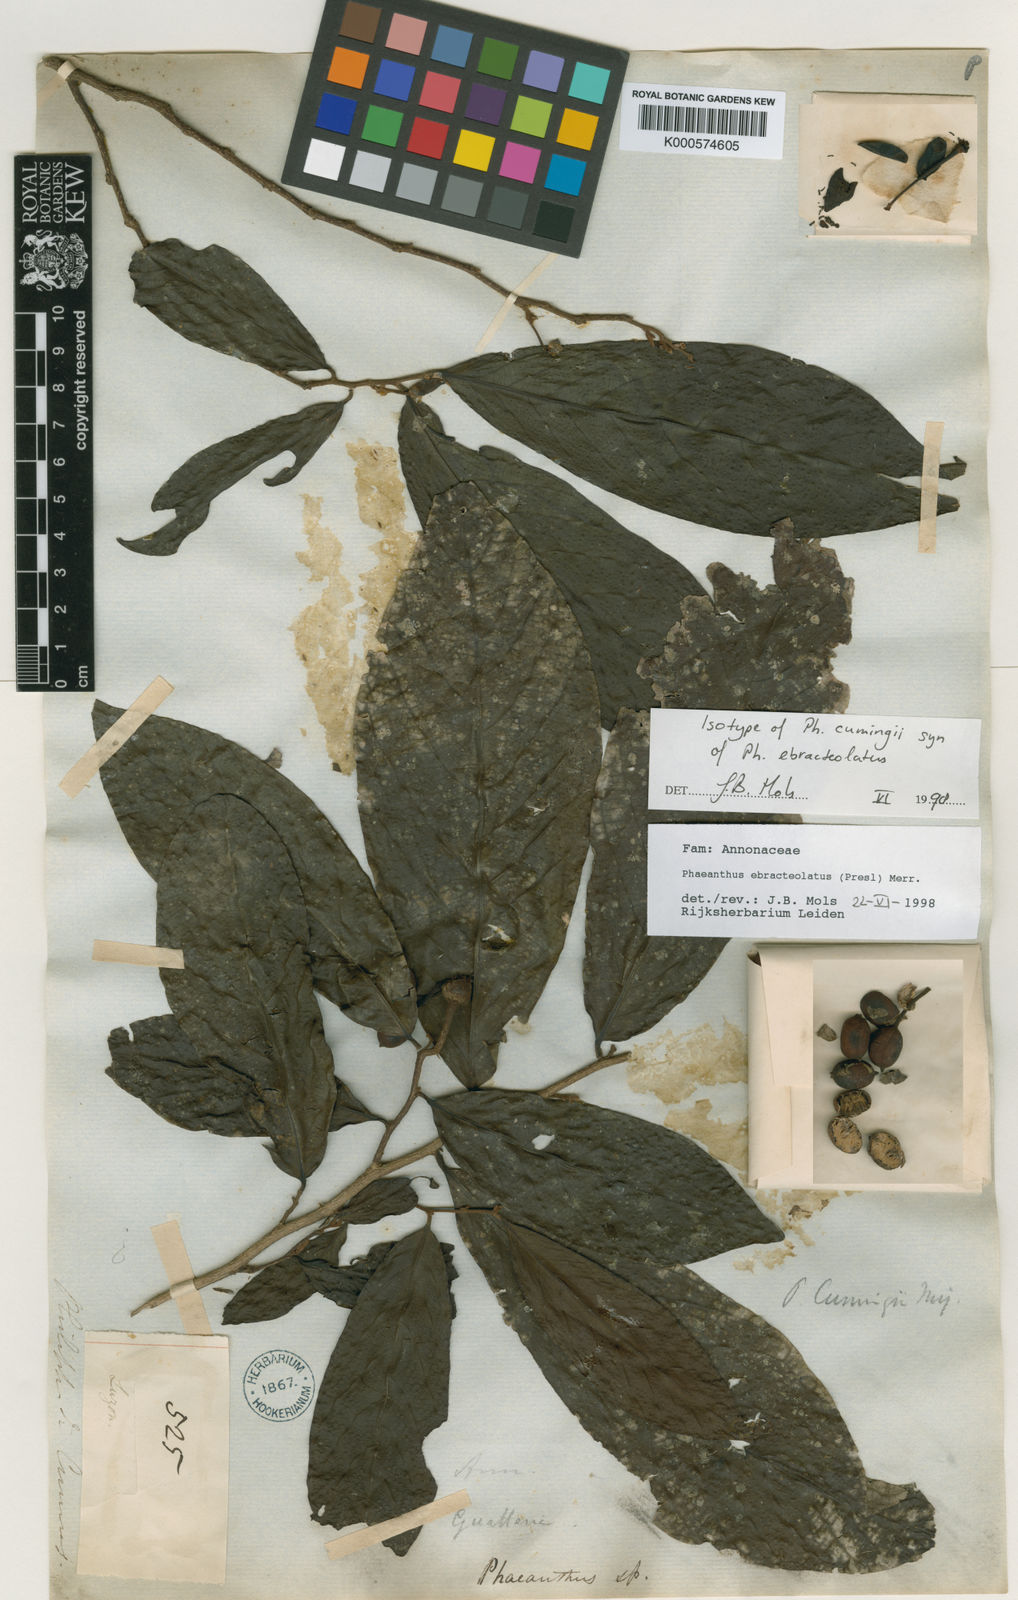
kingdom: Plantae
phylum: Tracheophyta
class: Magnoliopsida
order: Magnoliales
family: Annonaceae
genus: Phaeanthus
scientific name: Phaeanthus ophthalmicus
